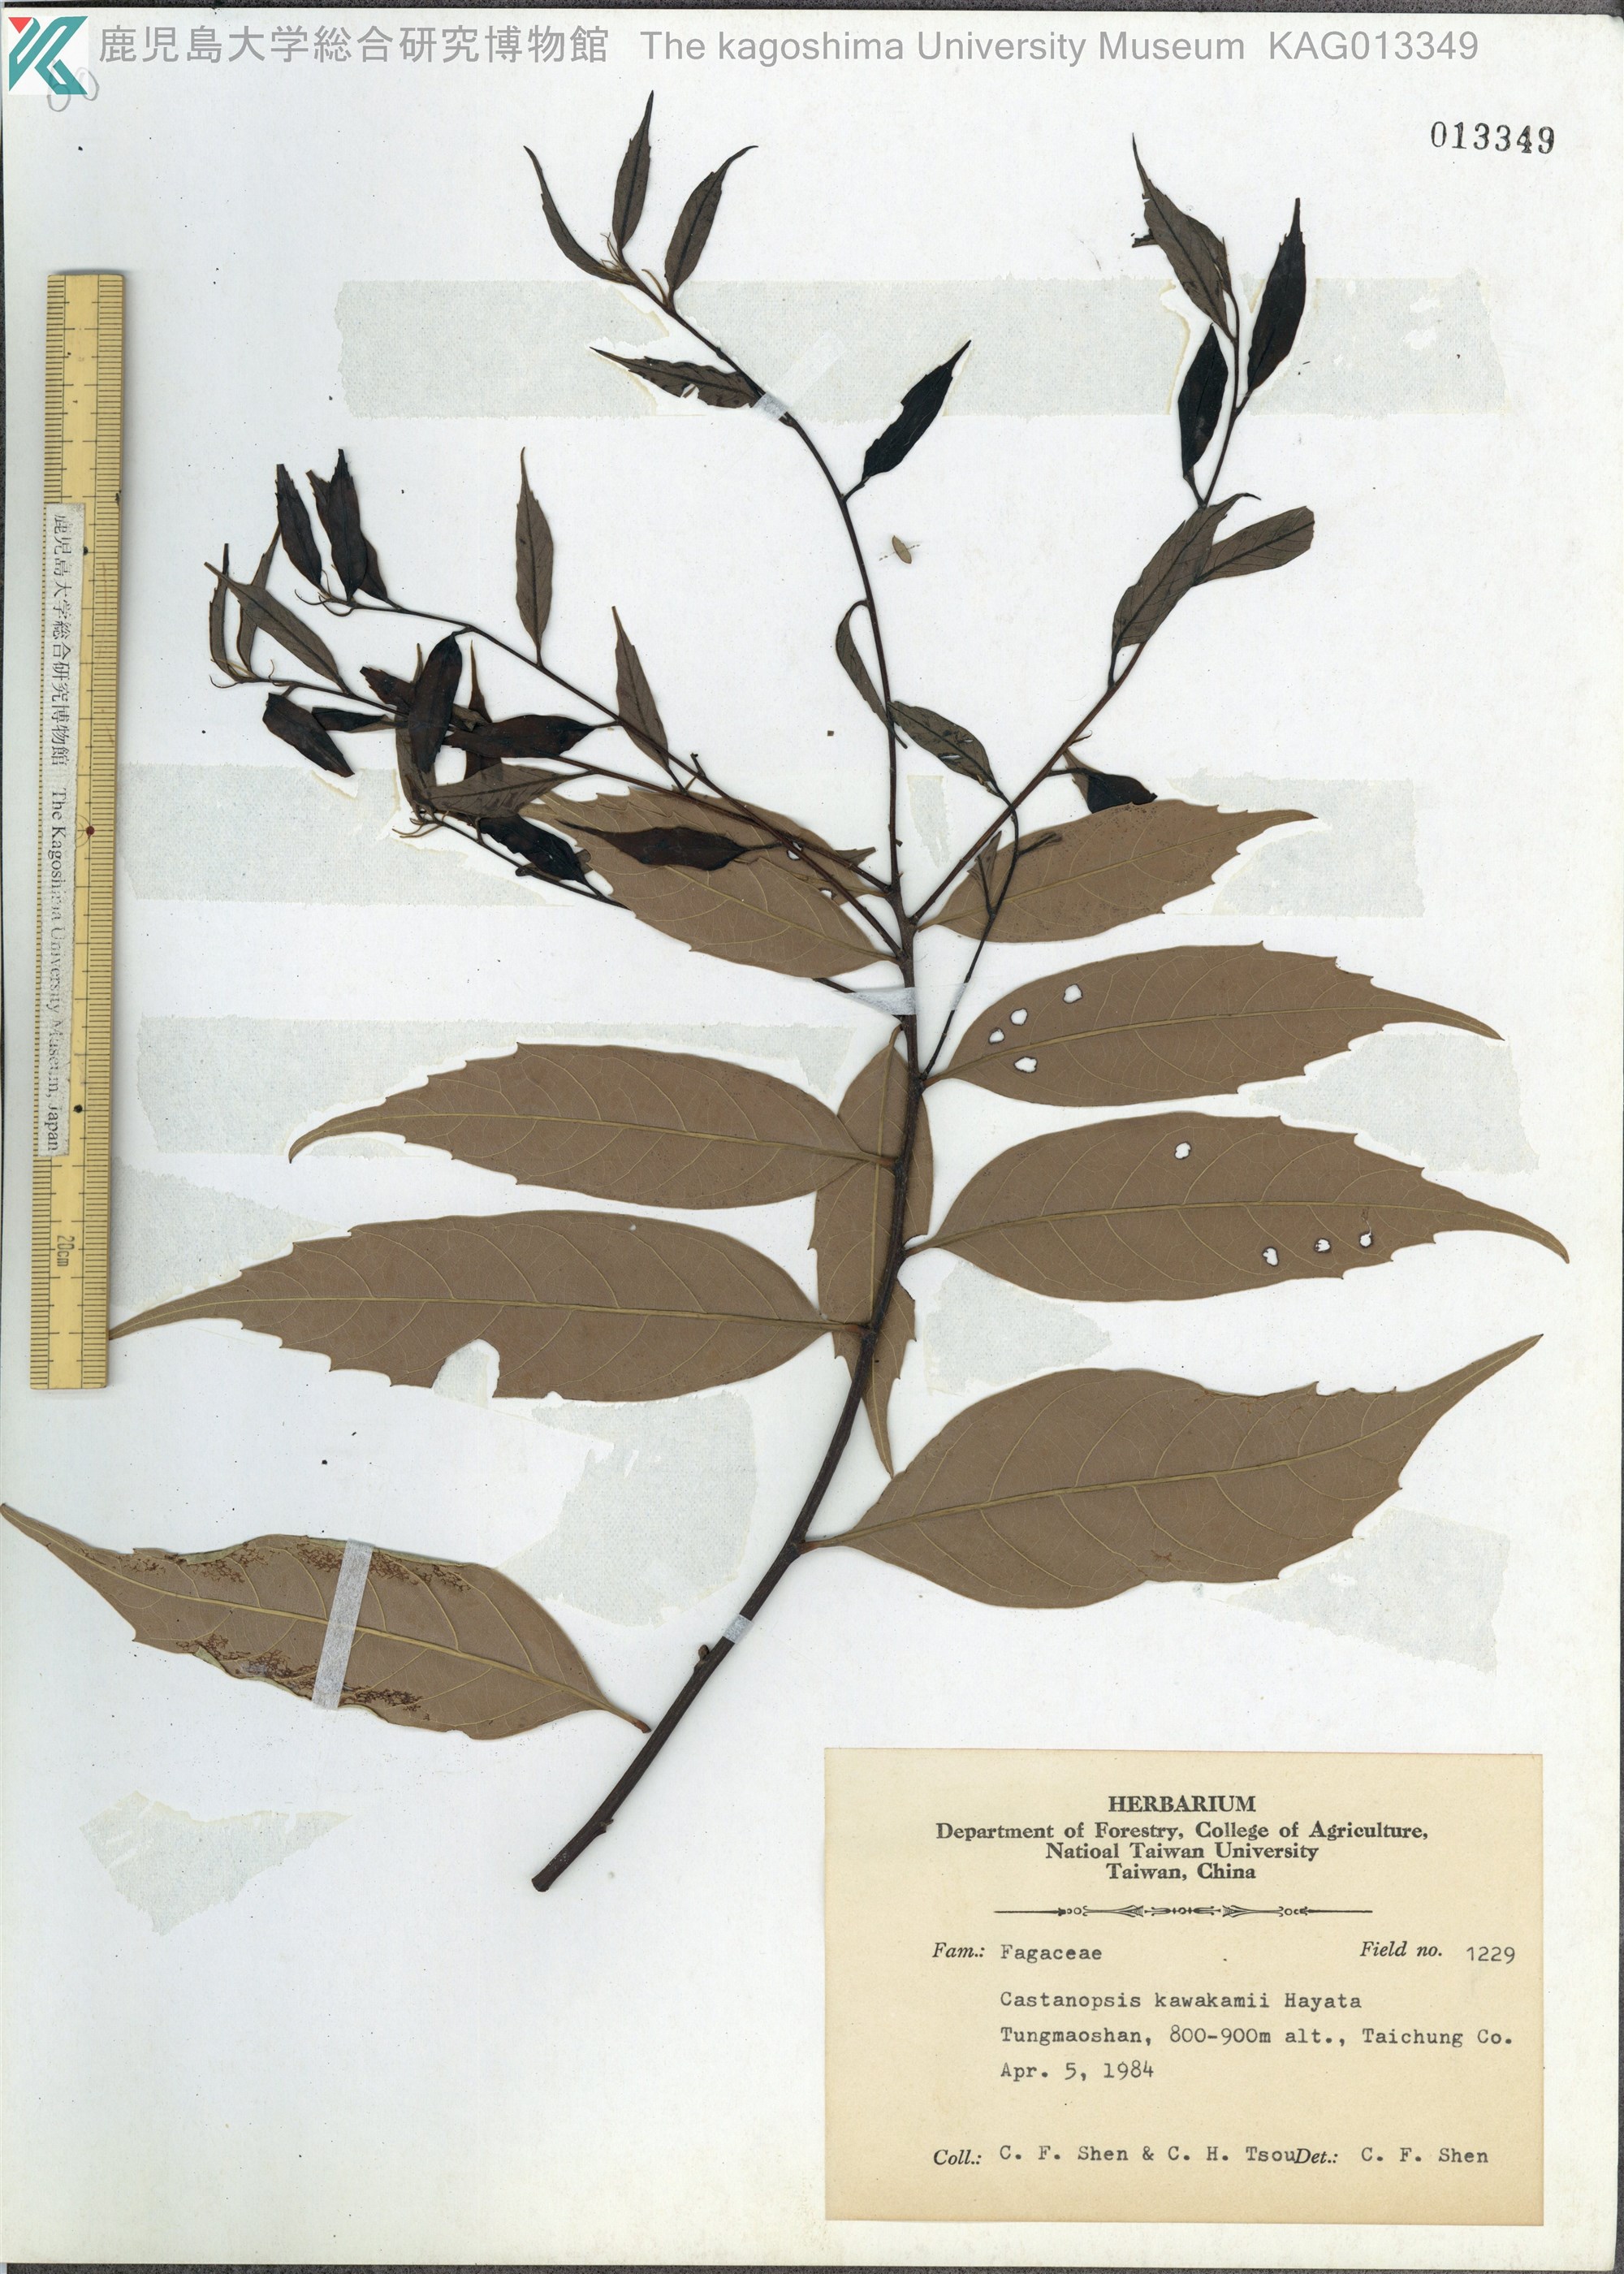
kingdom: Plantae
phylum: Tracheophyta
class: Magnoliopsida
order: Fagales
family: Fagaceae
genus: Castanopsis
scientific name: Castanopsis kawakamii
